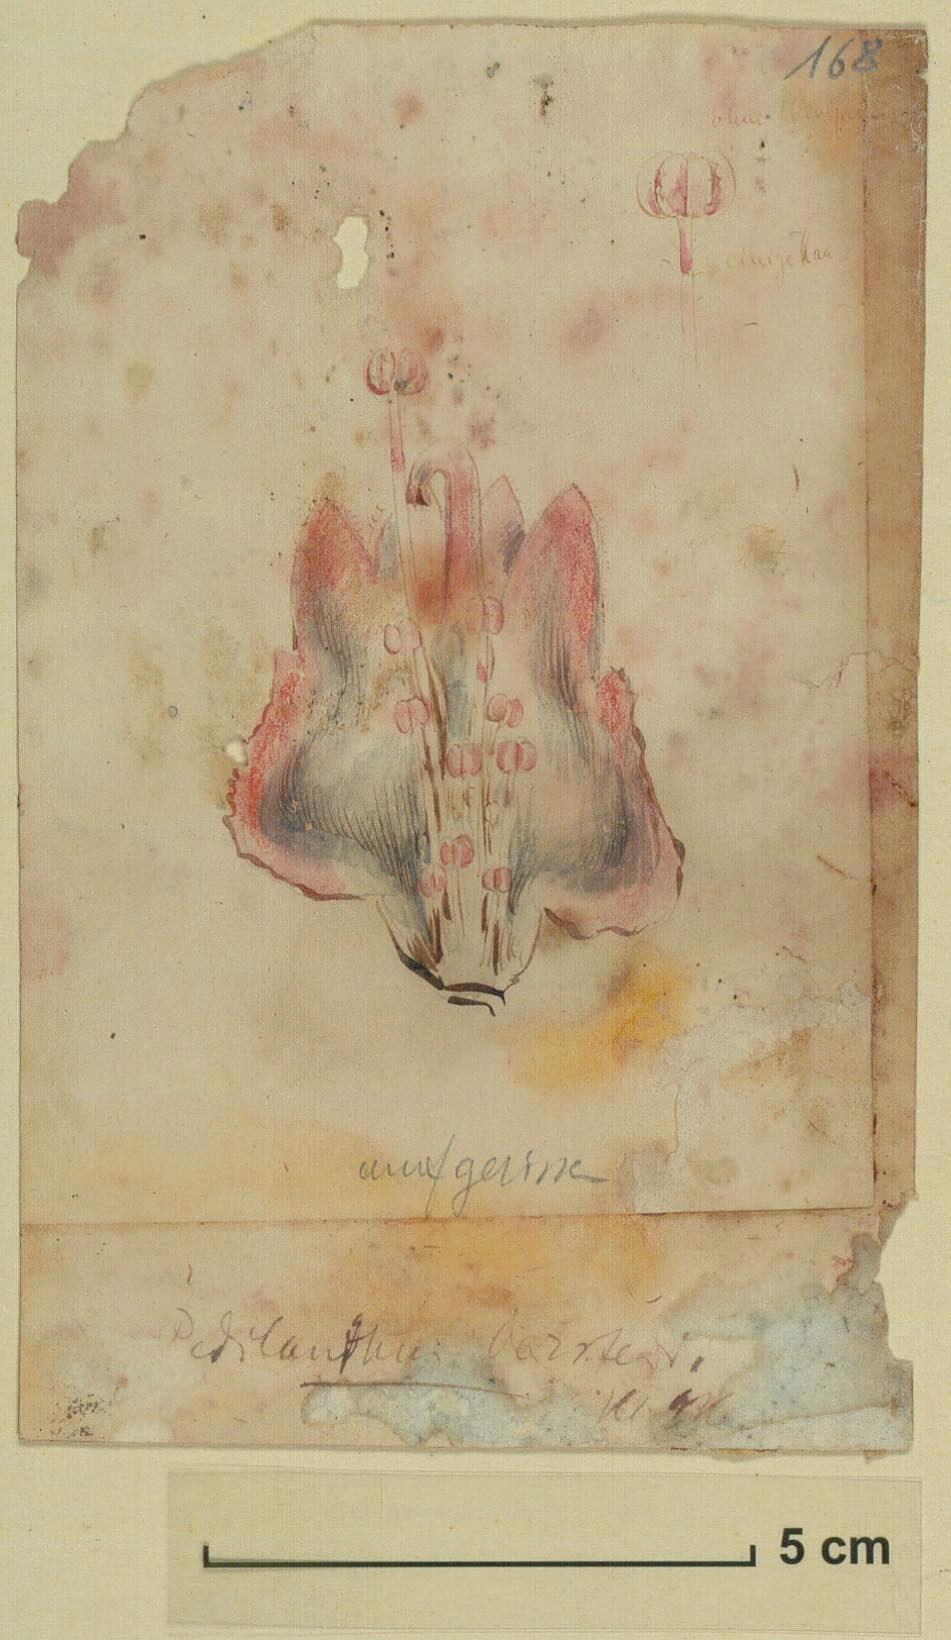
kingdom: Plantae
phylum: Tracheophyta
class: Magnoliopsida
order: Malpighiales
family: Euphorbiaceae
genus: Euphorbia
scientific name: Euphorbia Pedilanthus oerstedii
